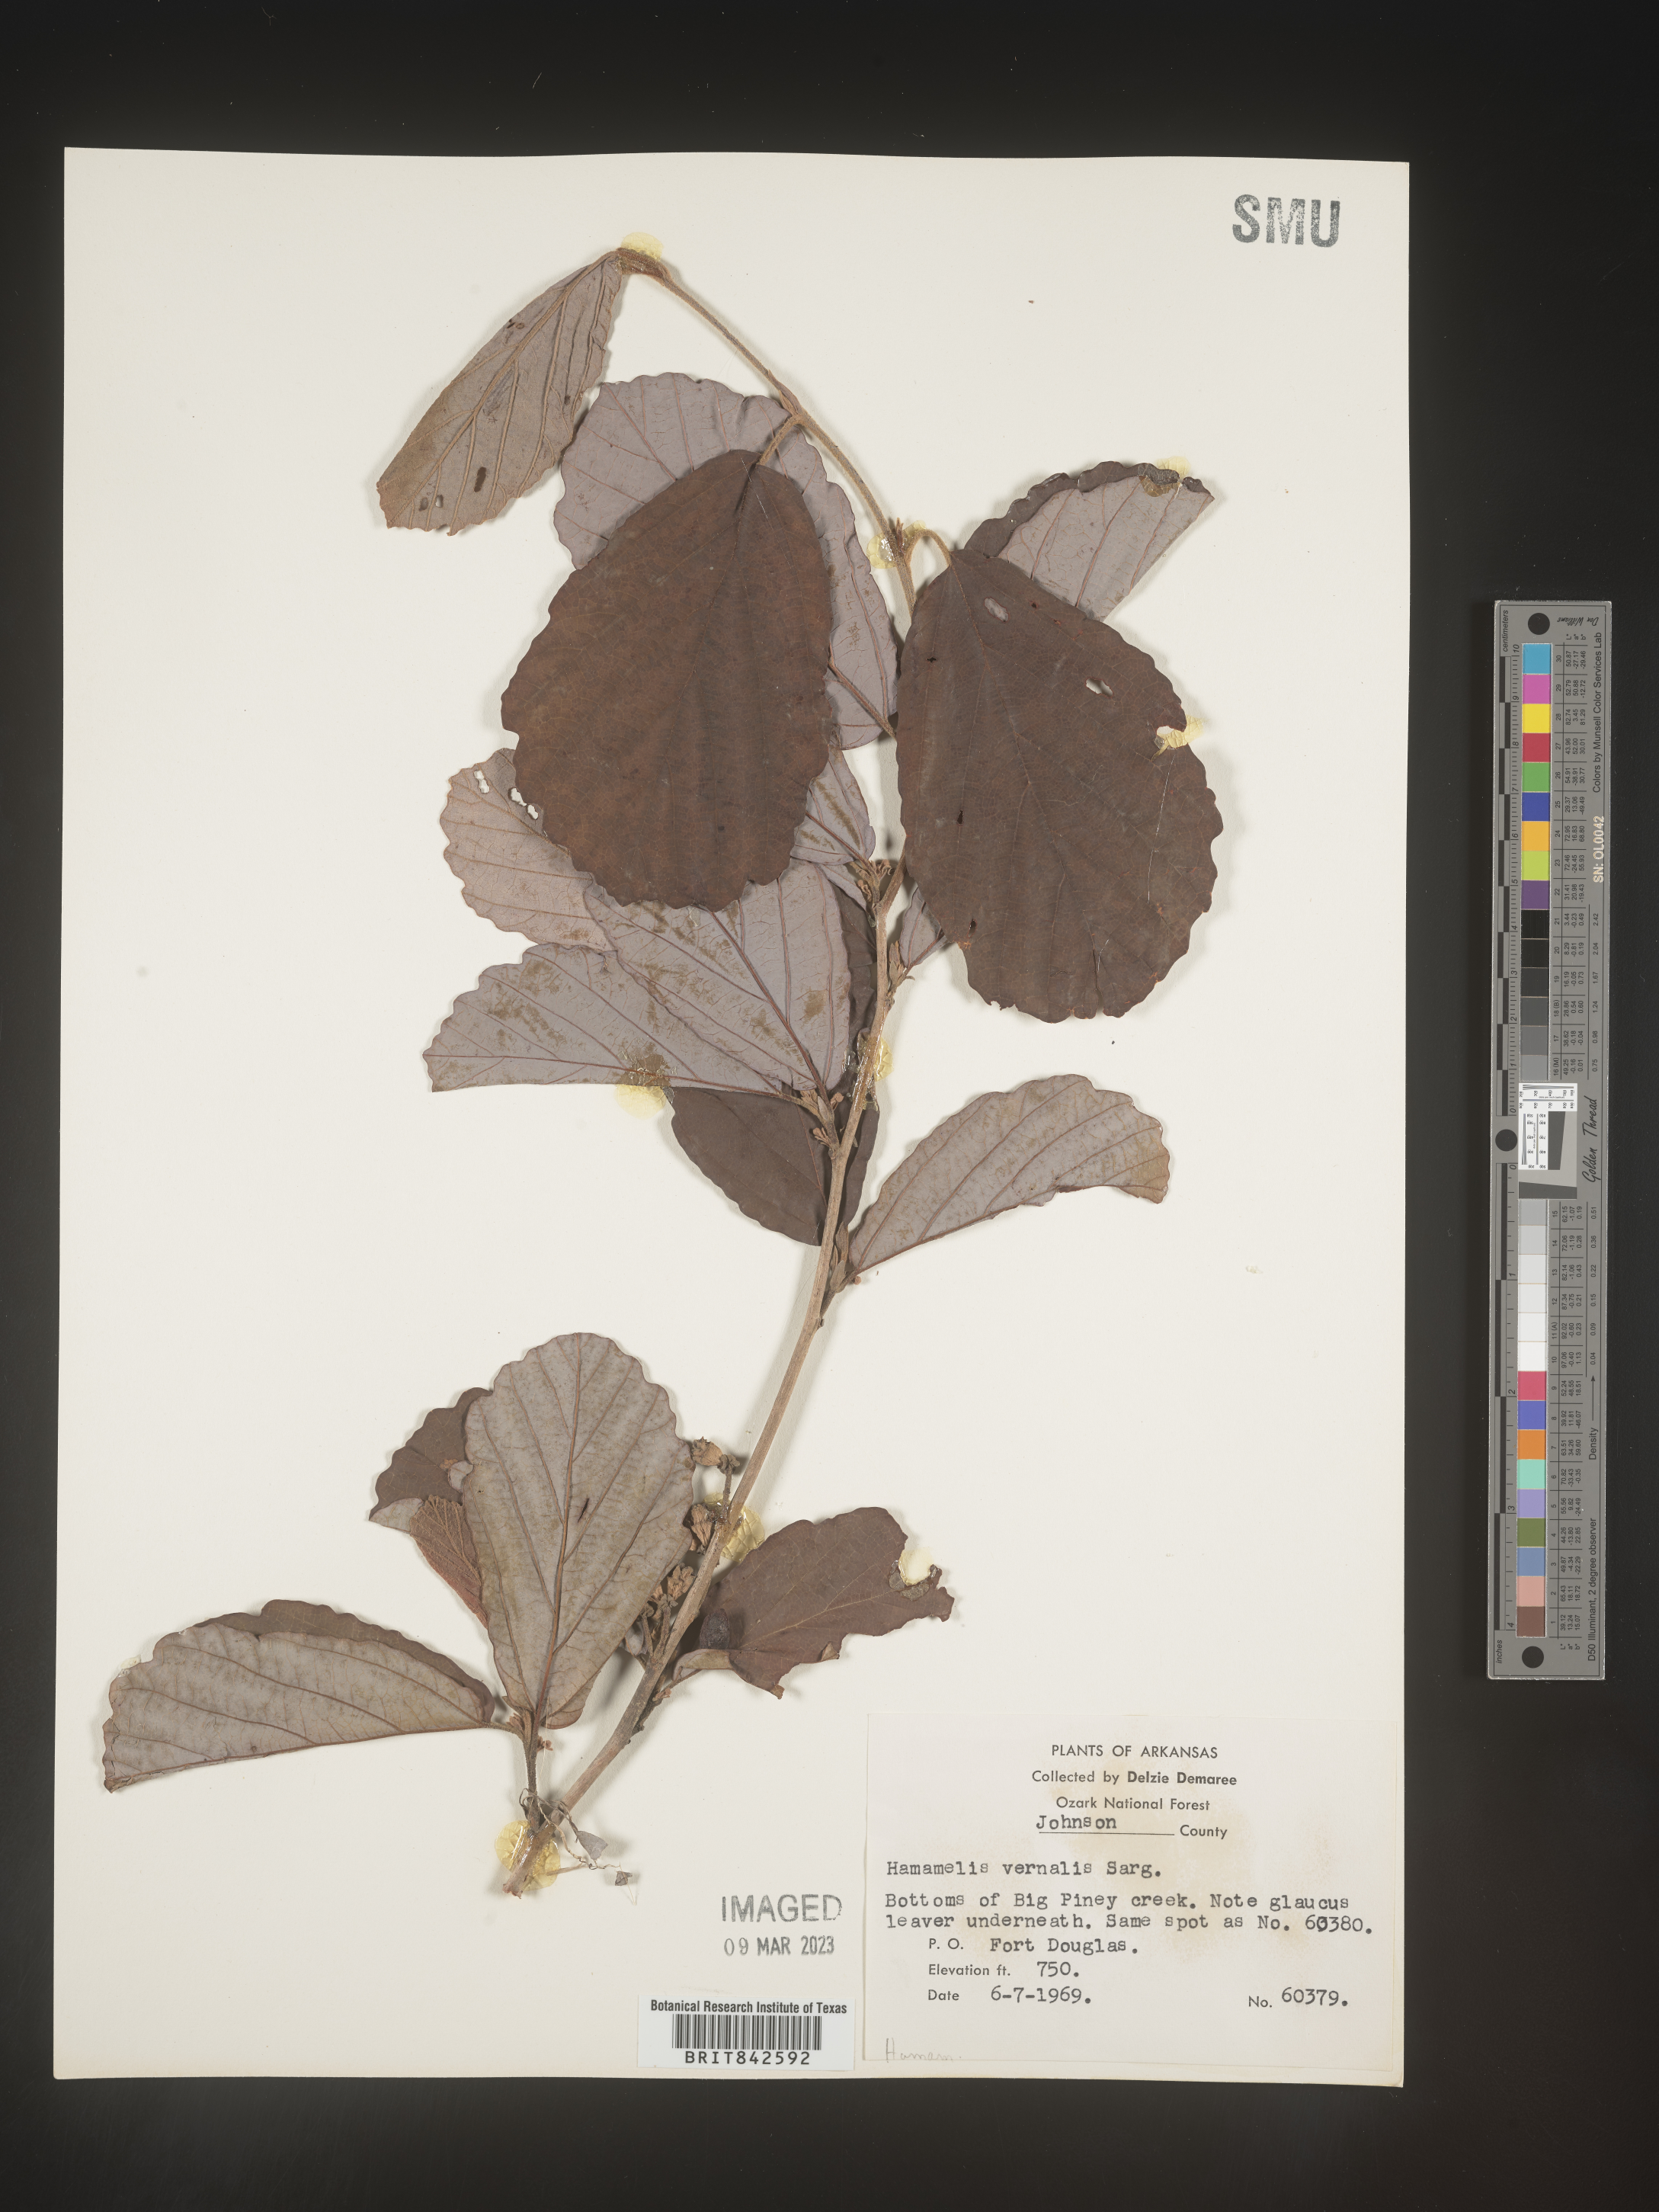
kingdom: Plantae
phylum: Tracheophyta
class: Magnoliopsida
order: Saxifragales
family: Hamamelidaceae
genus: Hamamelis
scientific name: Hamamelis vernalis
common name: Ozark witch-hazel
